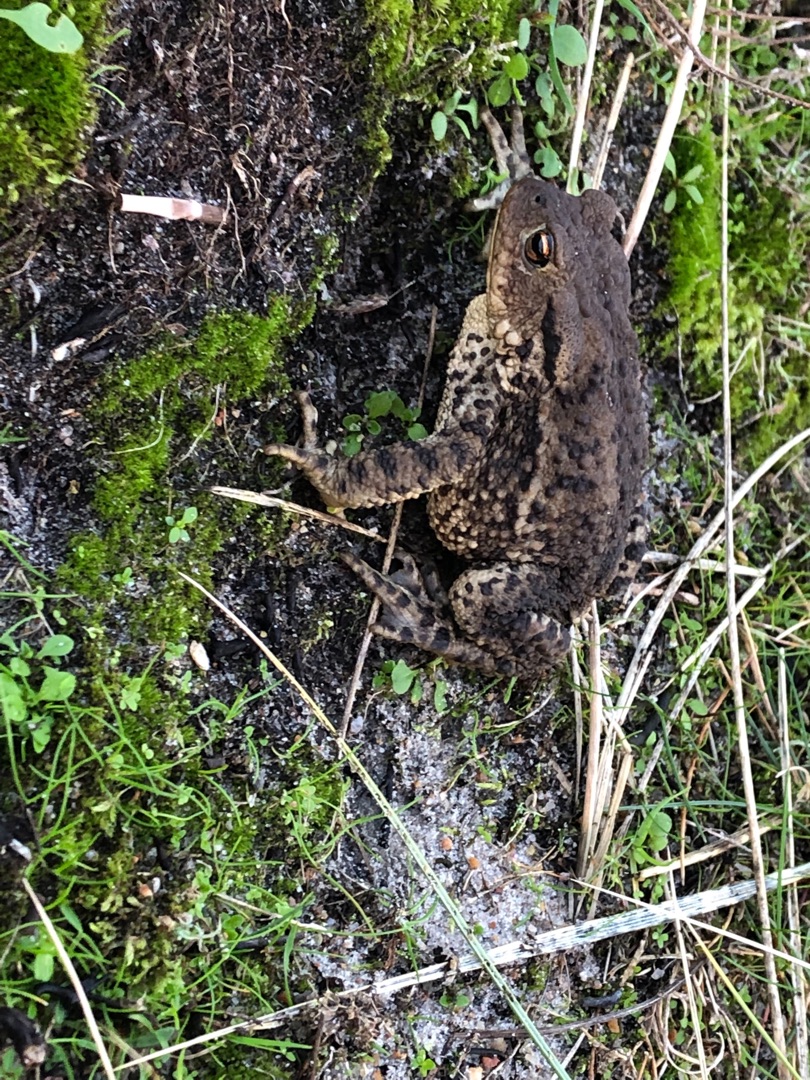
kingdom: Animalia
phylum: Chordata
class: Amphibia
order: Anura
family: Bufonidae
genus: Bufo
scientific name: Bufo bufo
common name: Skrubtudse
